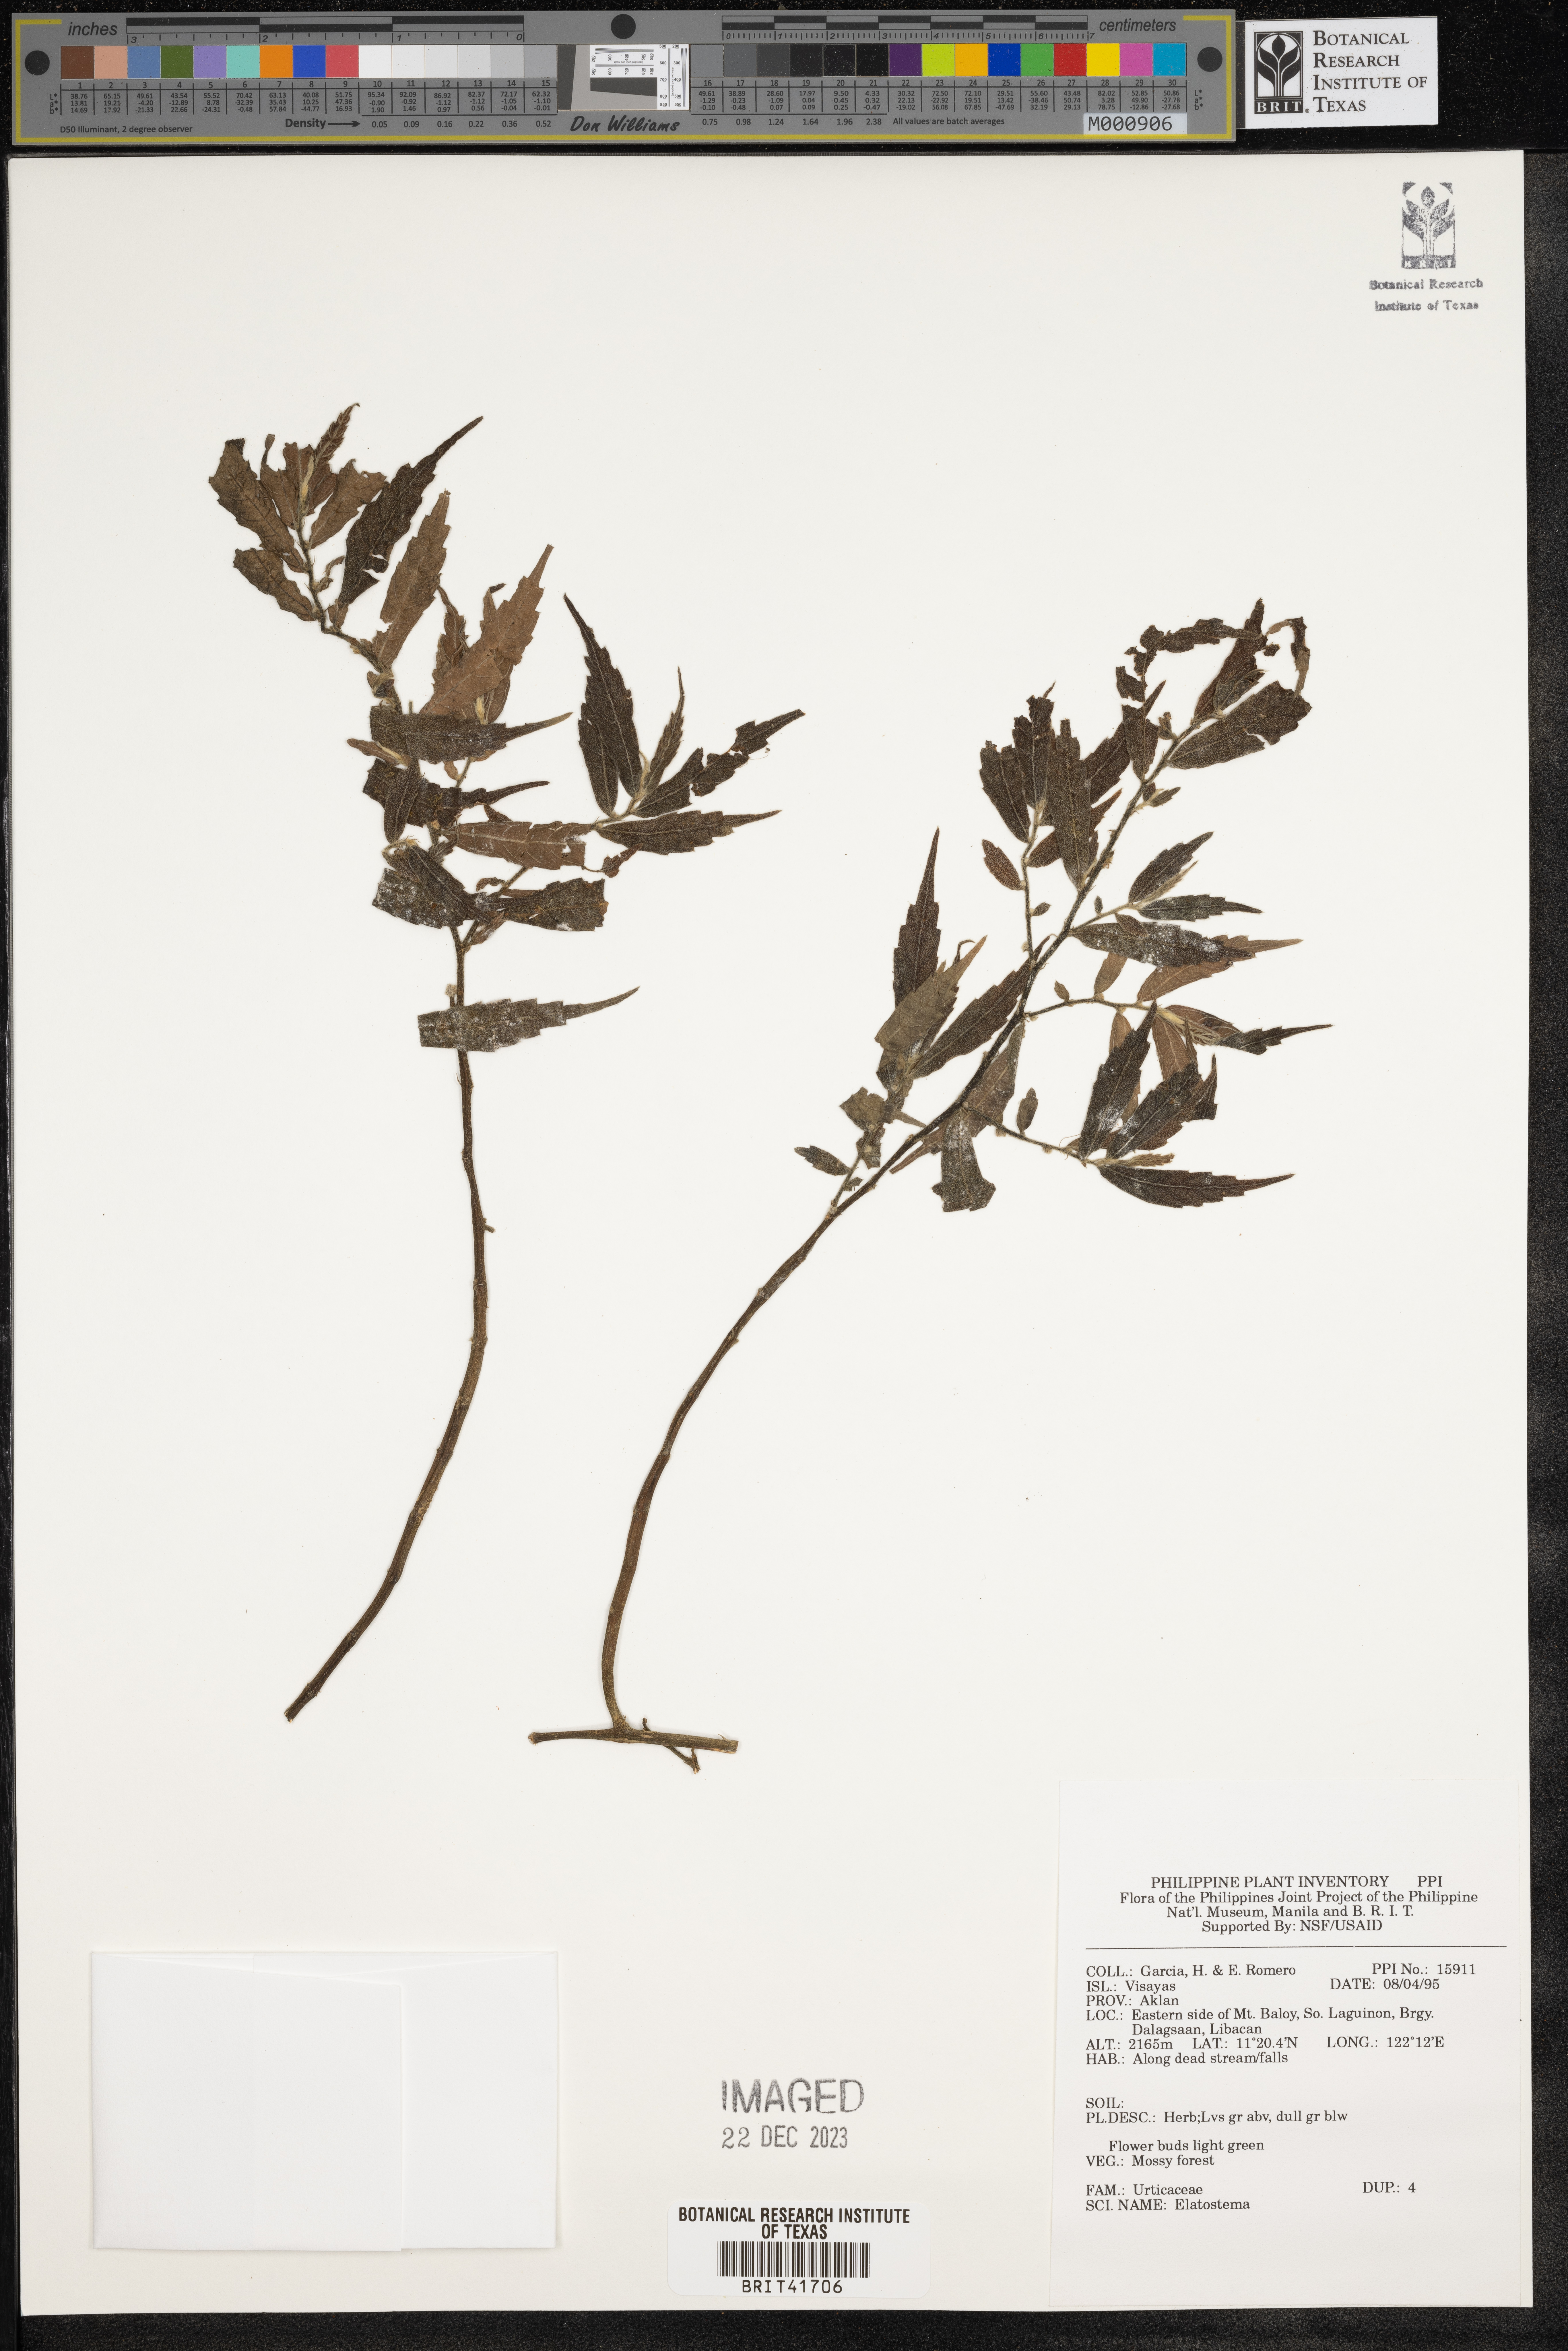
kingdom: Plantae
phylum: Tracheophyta
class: Magnoliopsida
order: Rosales
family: Urticaceae
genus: Elatostema
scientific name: Elatostema
